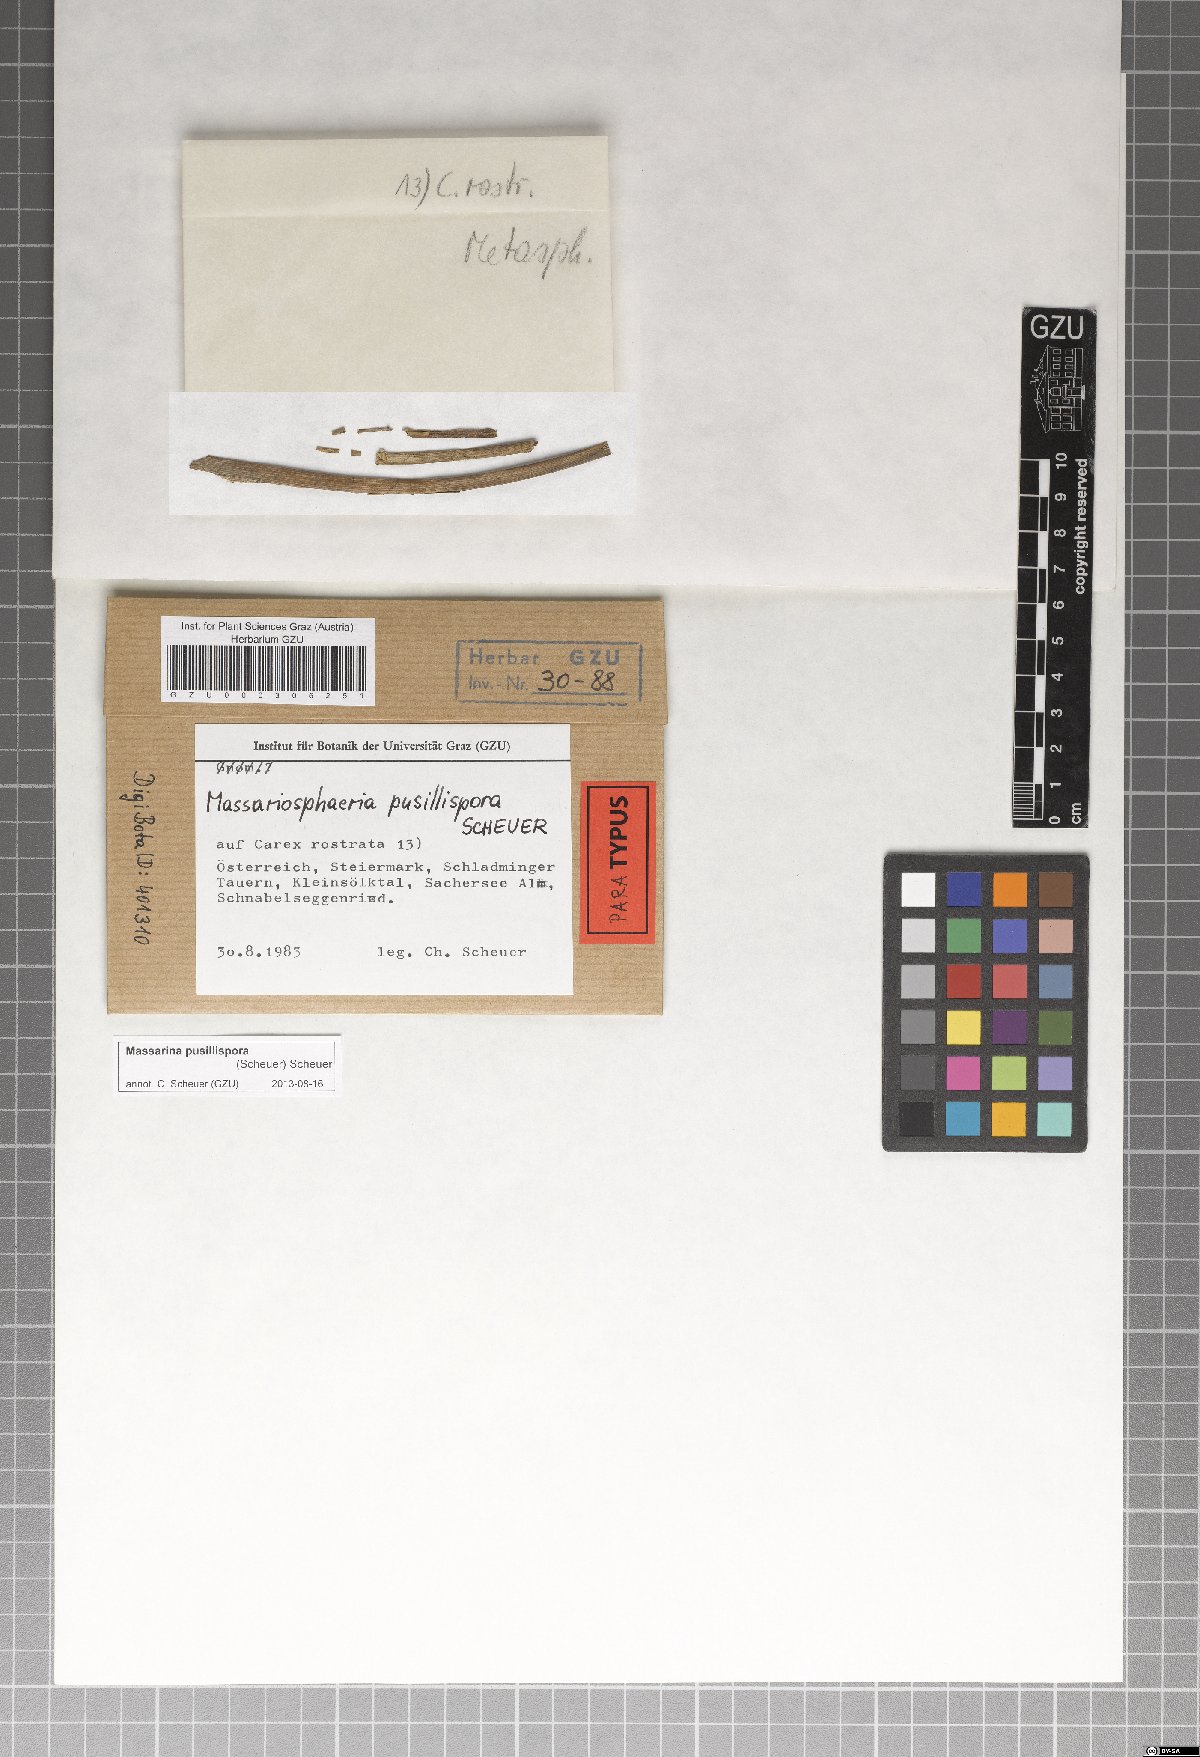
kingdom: Fungi
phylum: Ascomycota
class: Dothideomycetes
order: Pleosporales
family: Massarinaceae
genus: Massarina
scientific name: Massarina pusillispora
